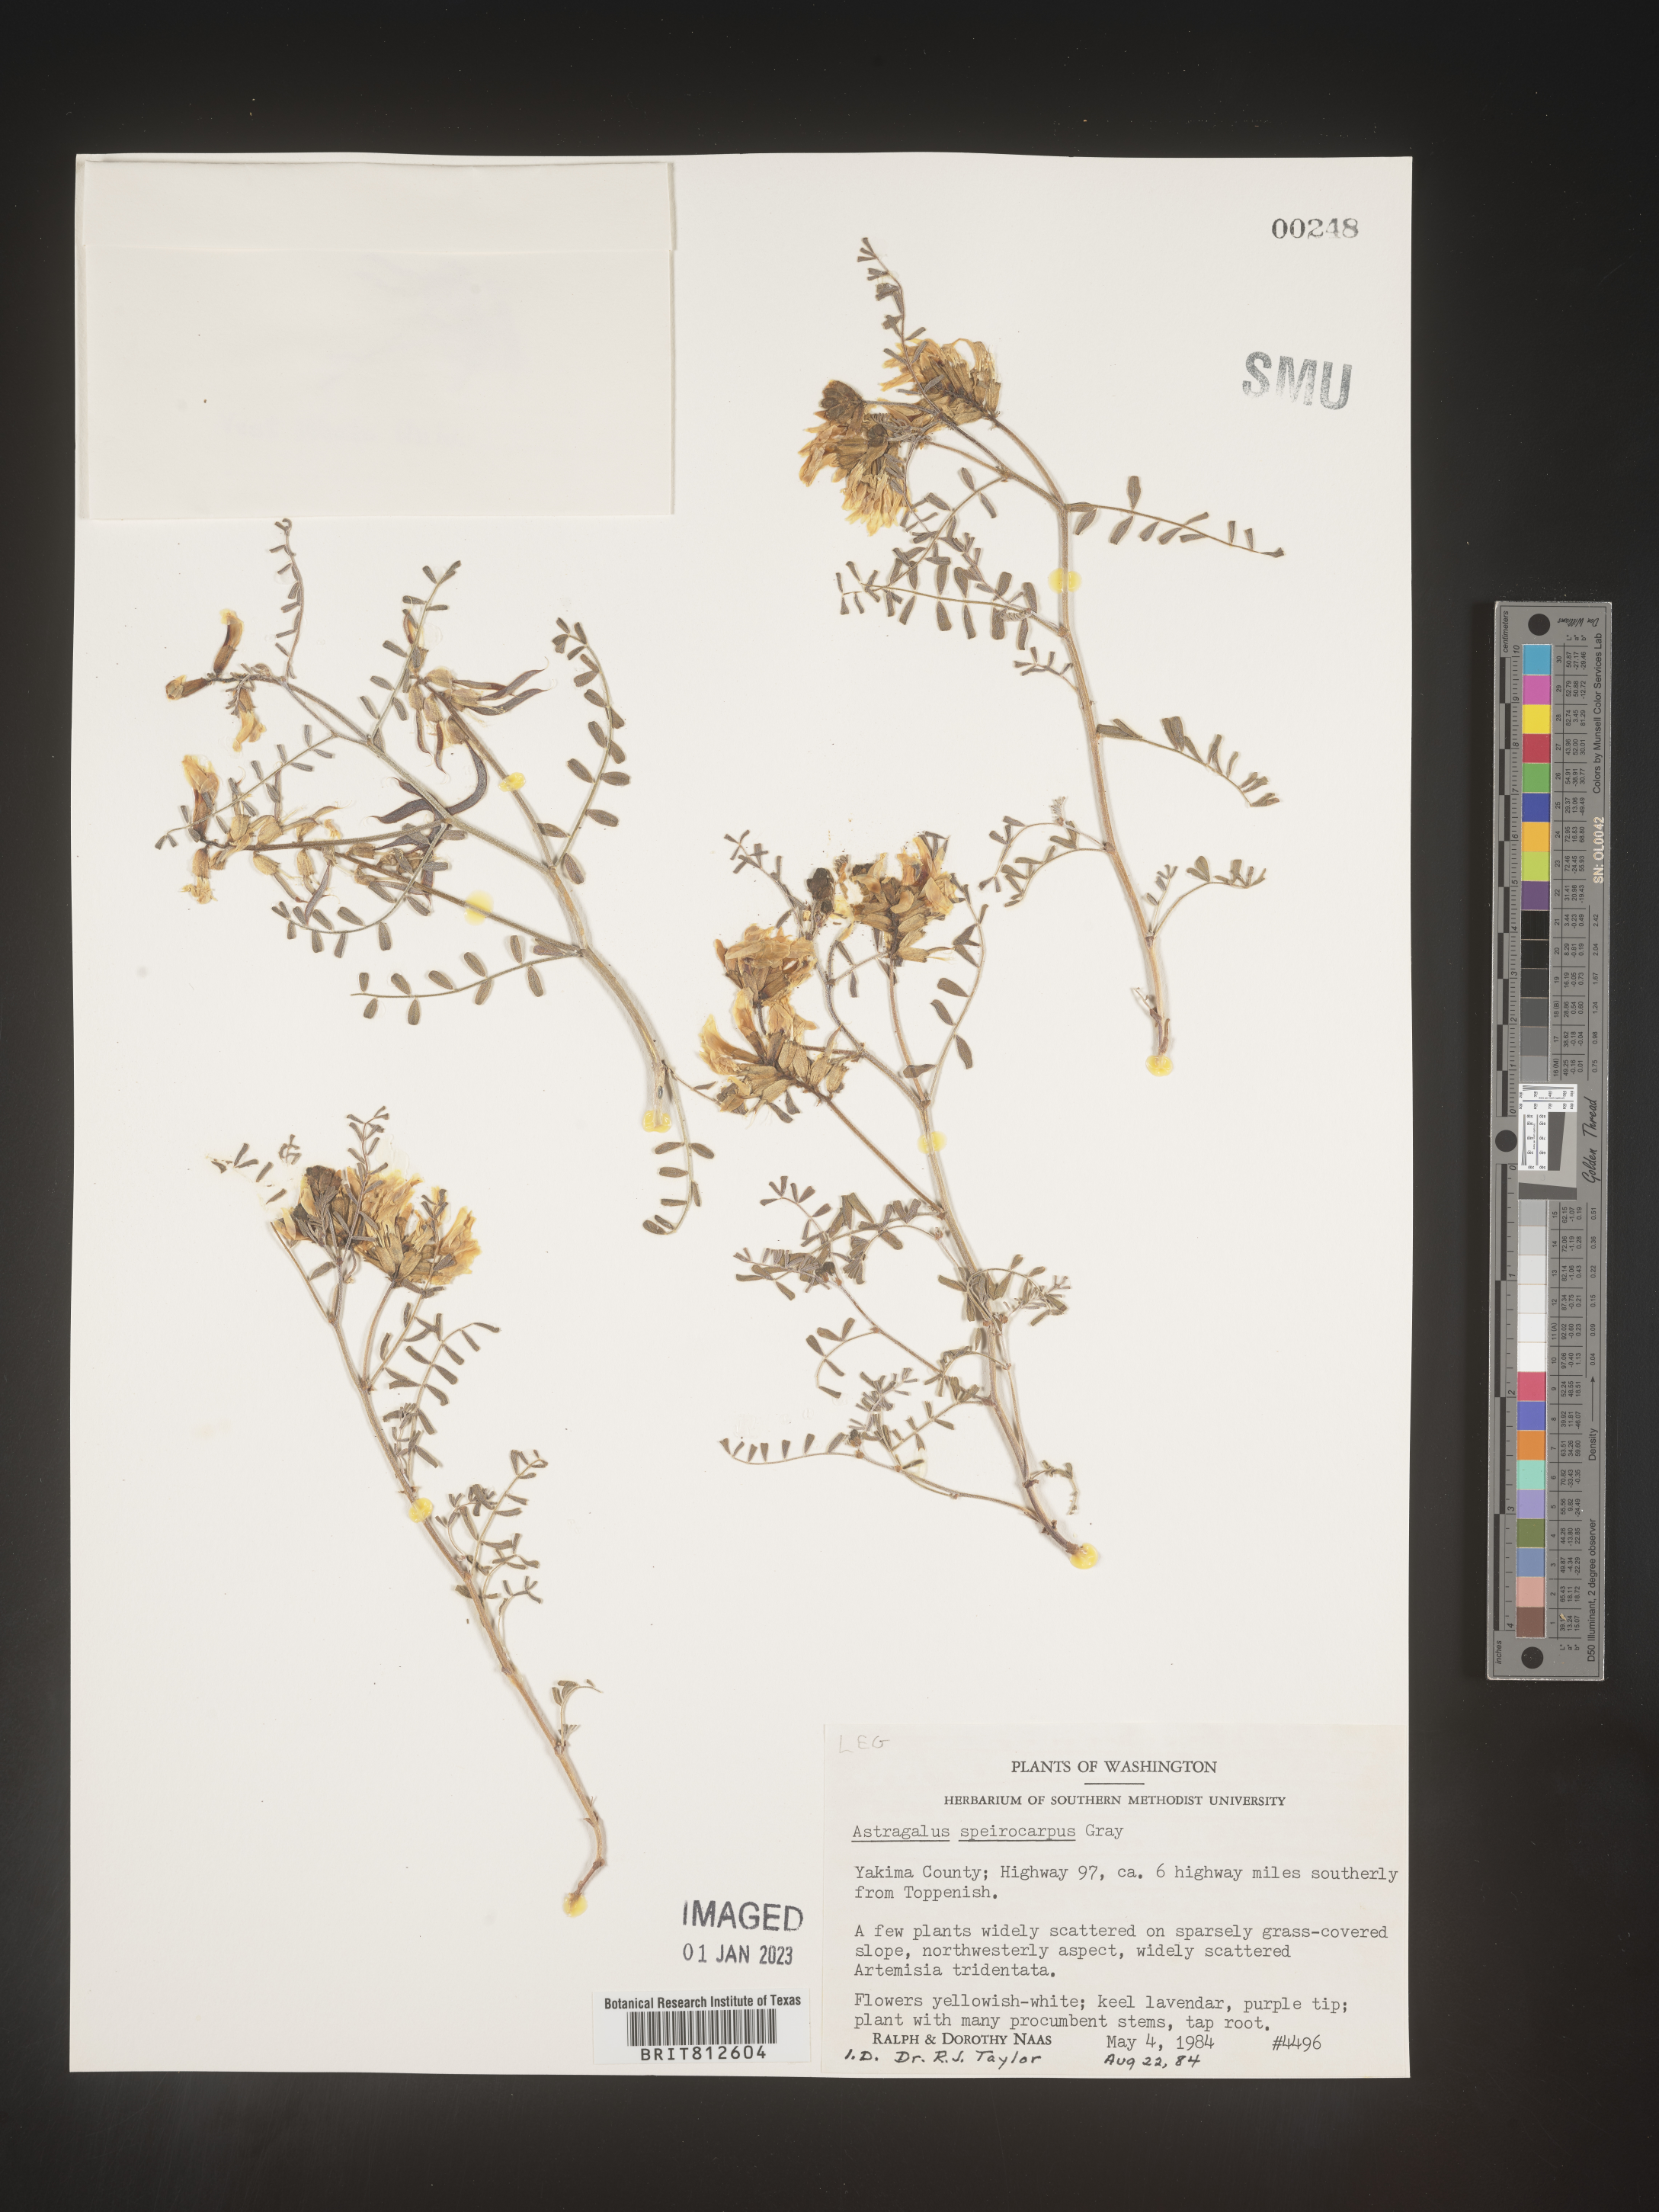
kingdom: Plantae
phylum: Tracheophyta
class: Magnoliopsida
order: Fabales
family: Fabaceae
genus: Astragalus
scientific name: Astragalus
